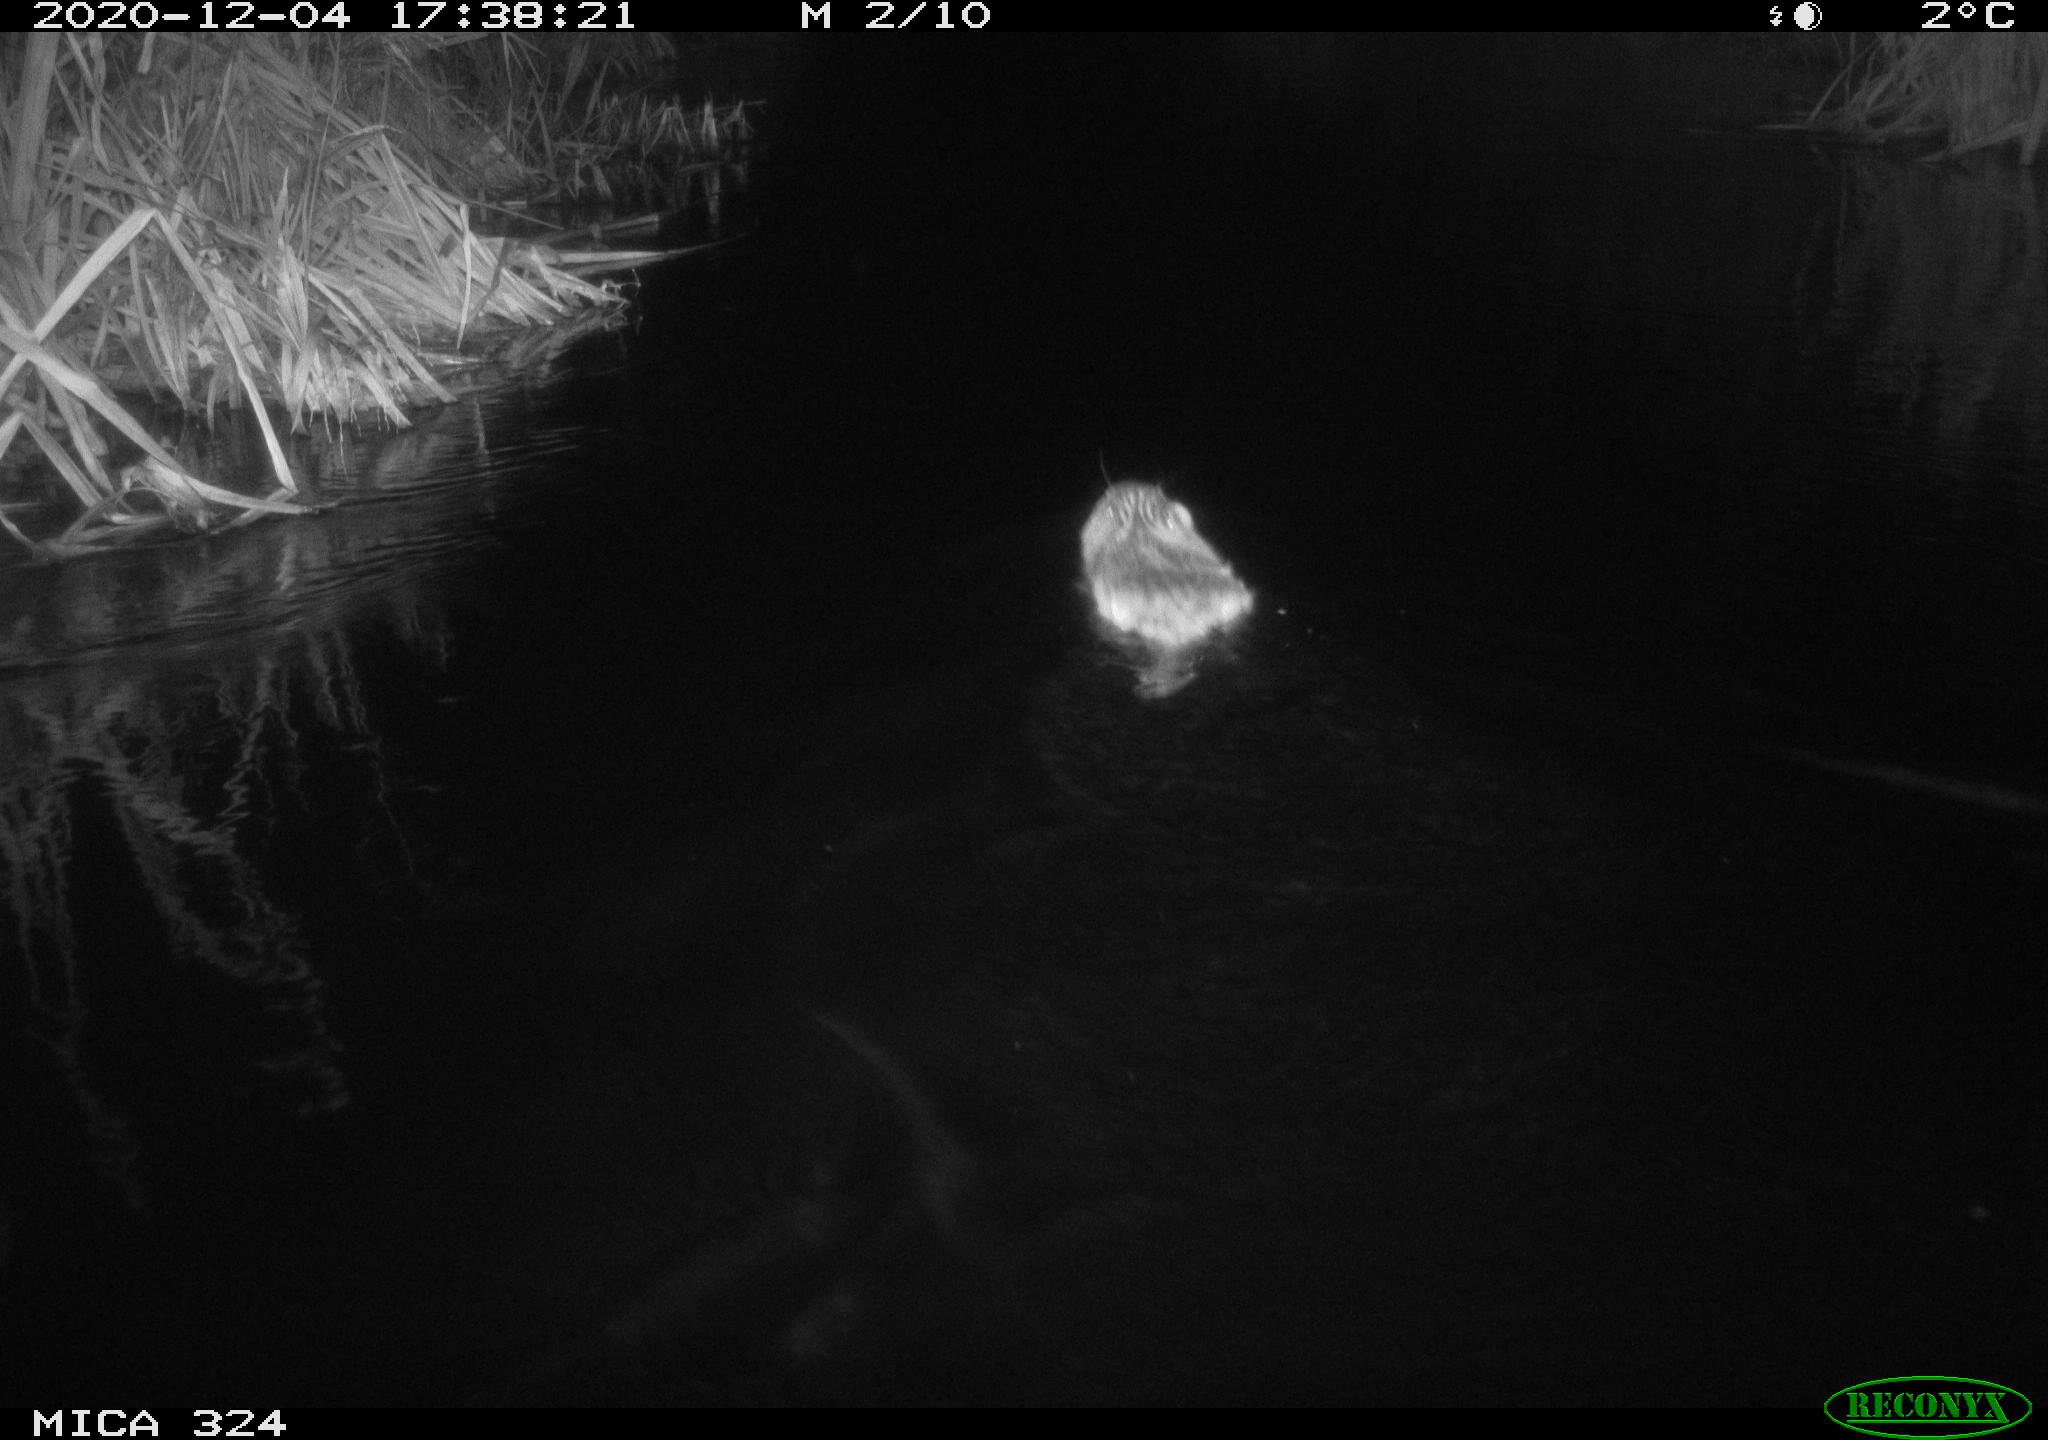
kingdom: Animalia
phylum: Chordata
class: Mammalia
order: Rodentia
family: Castoridae
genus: Castor
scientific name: Castor fiber
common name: Eurasian beaver
